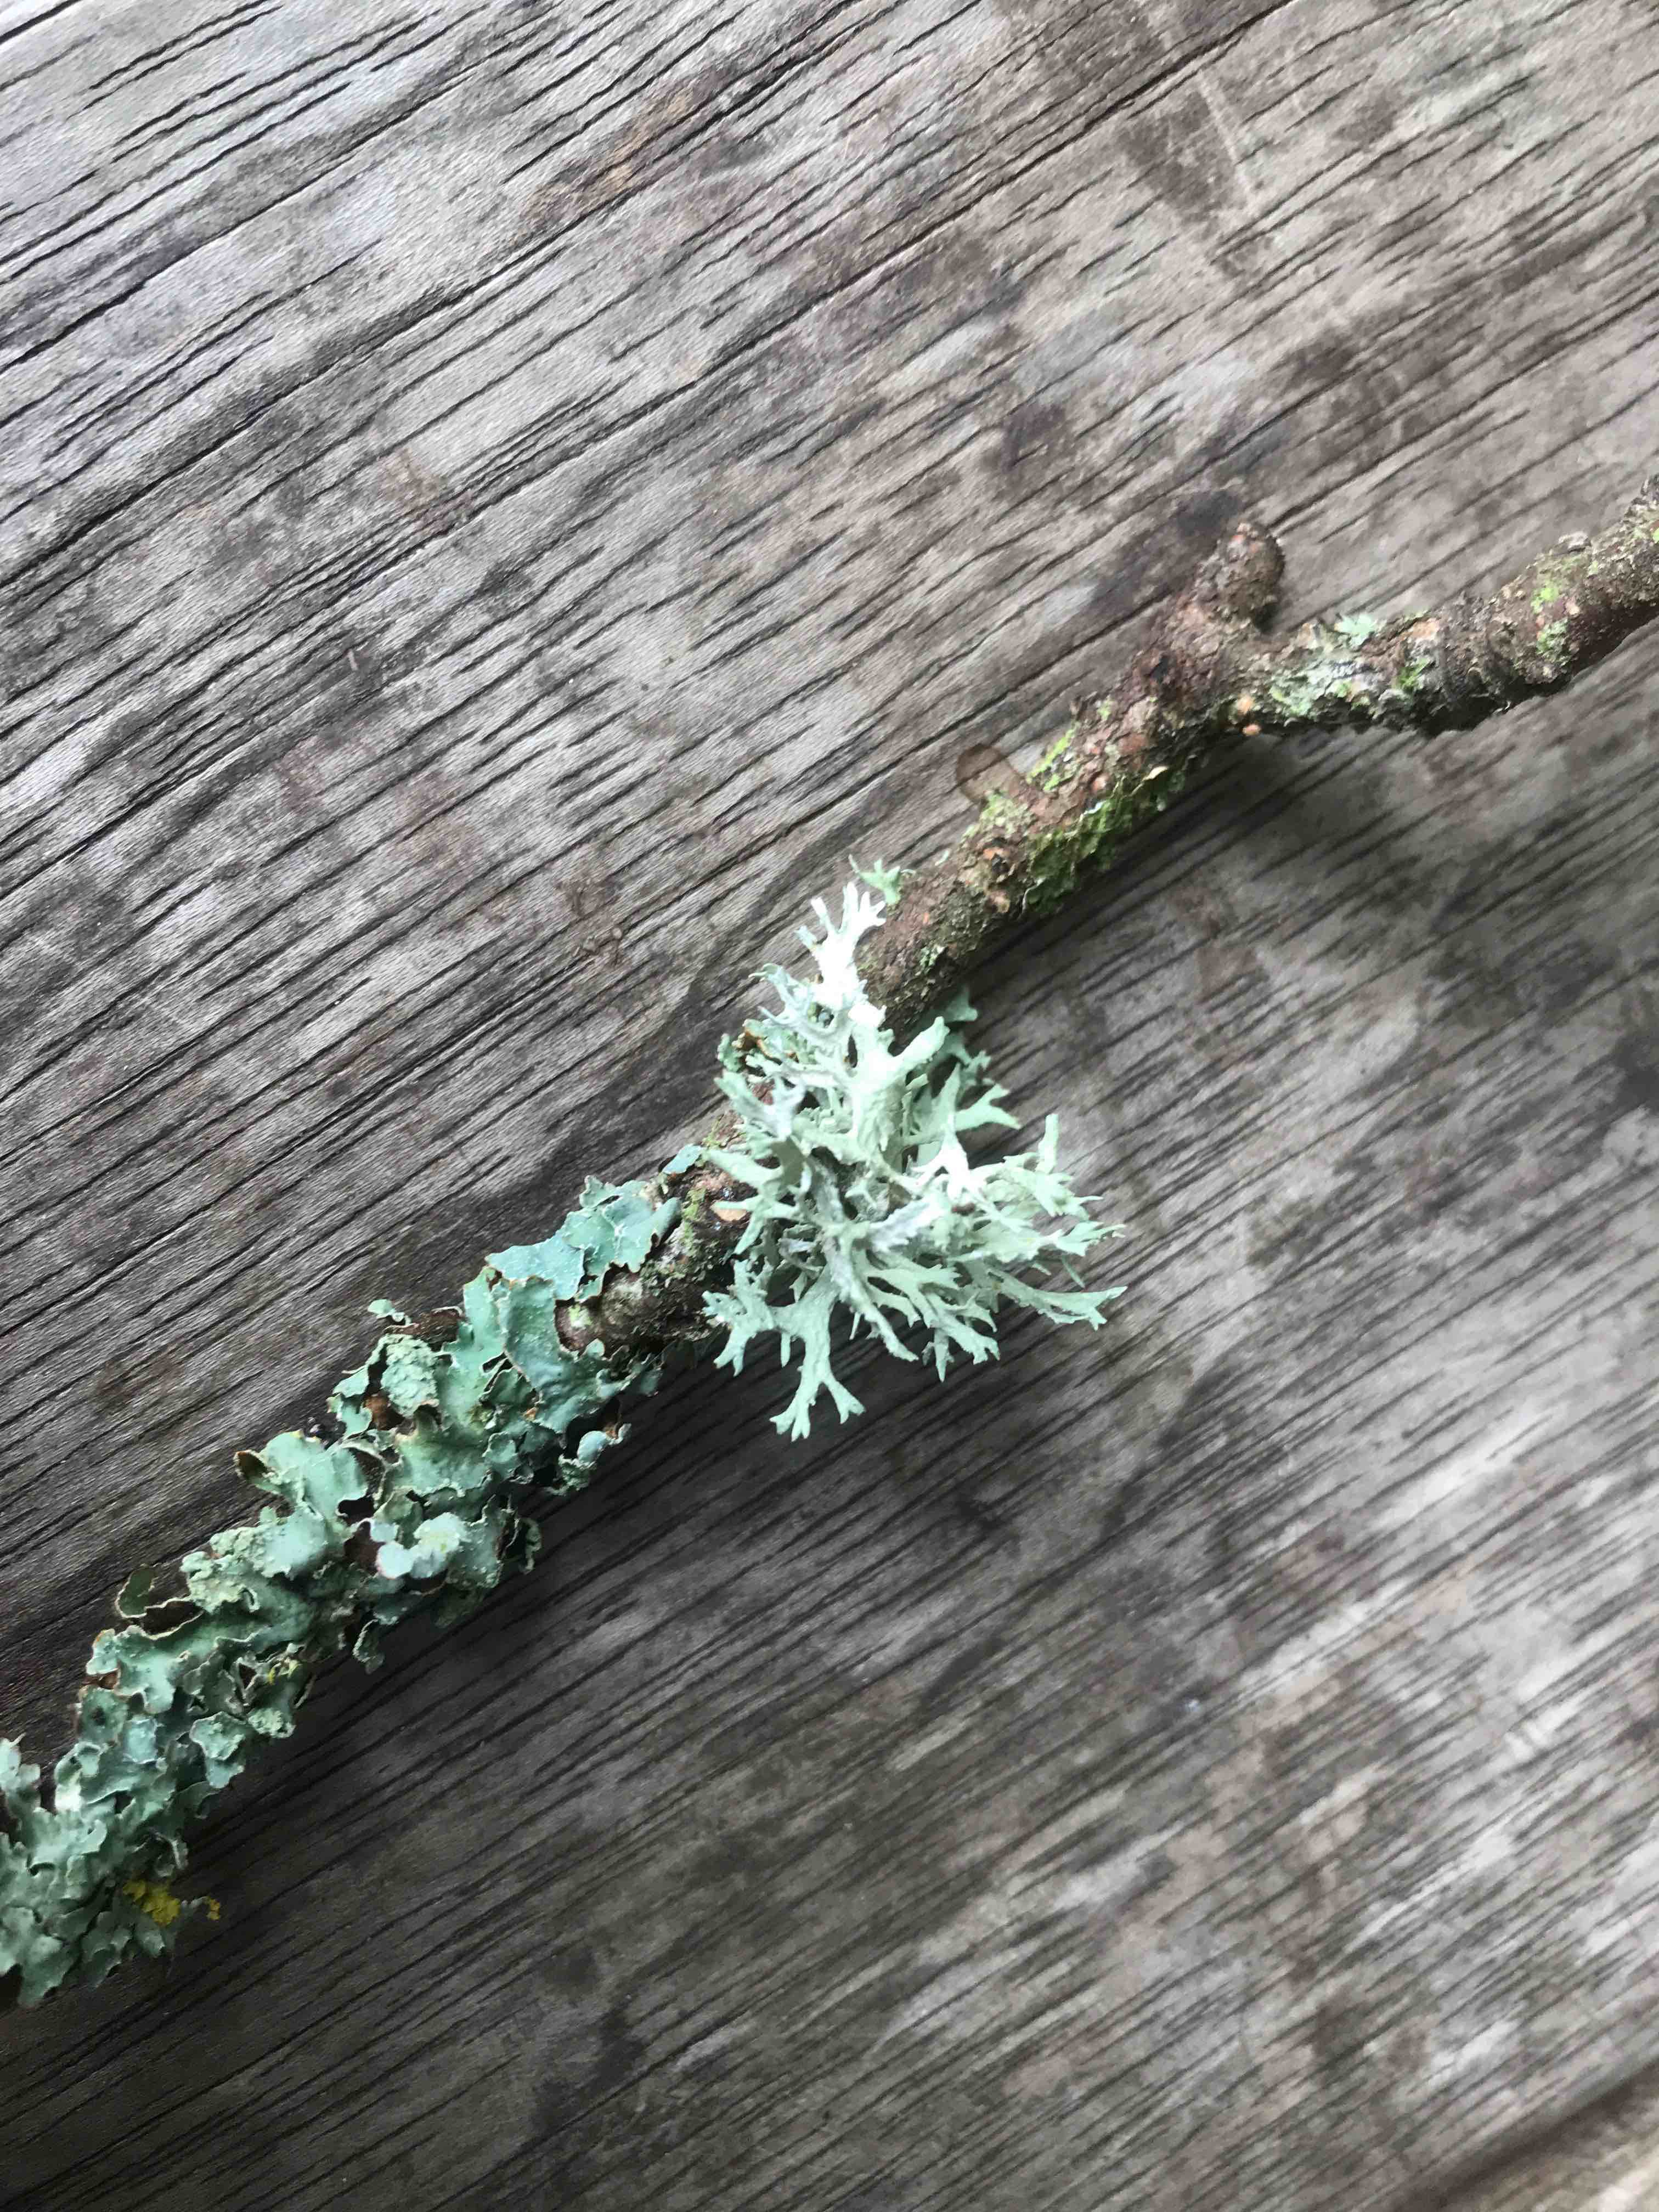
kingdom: Fungi
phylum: Ascomycota
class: Lecanoromycetes
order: Lecanorales
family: Parmeliaceae
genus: Evernia
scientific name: Evernia prunastri
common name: almindelig slåenlav
